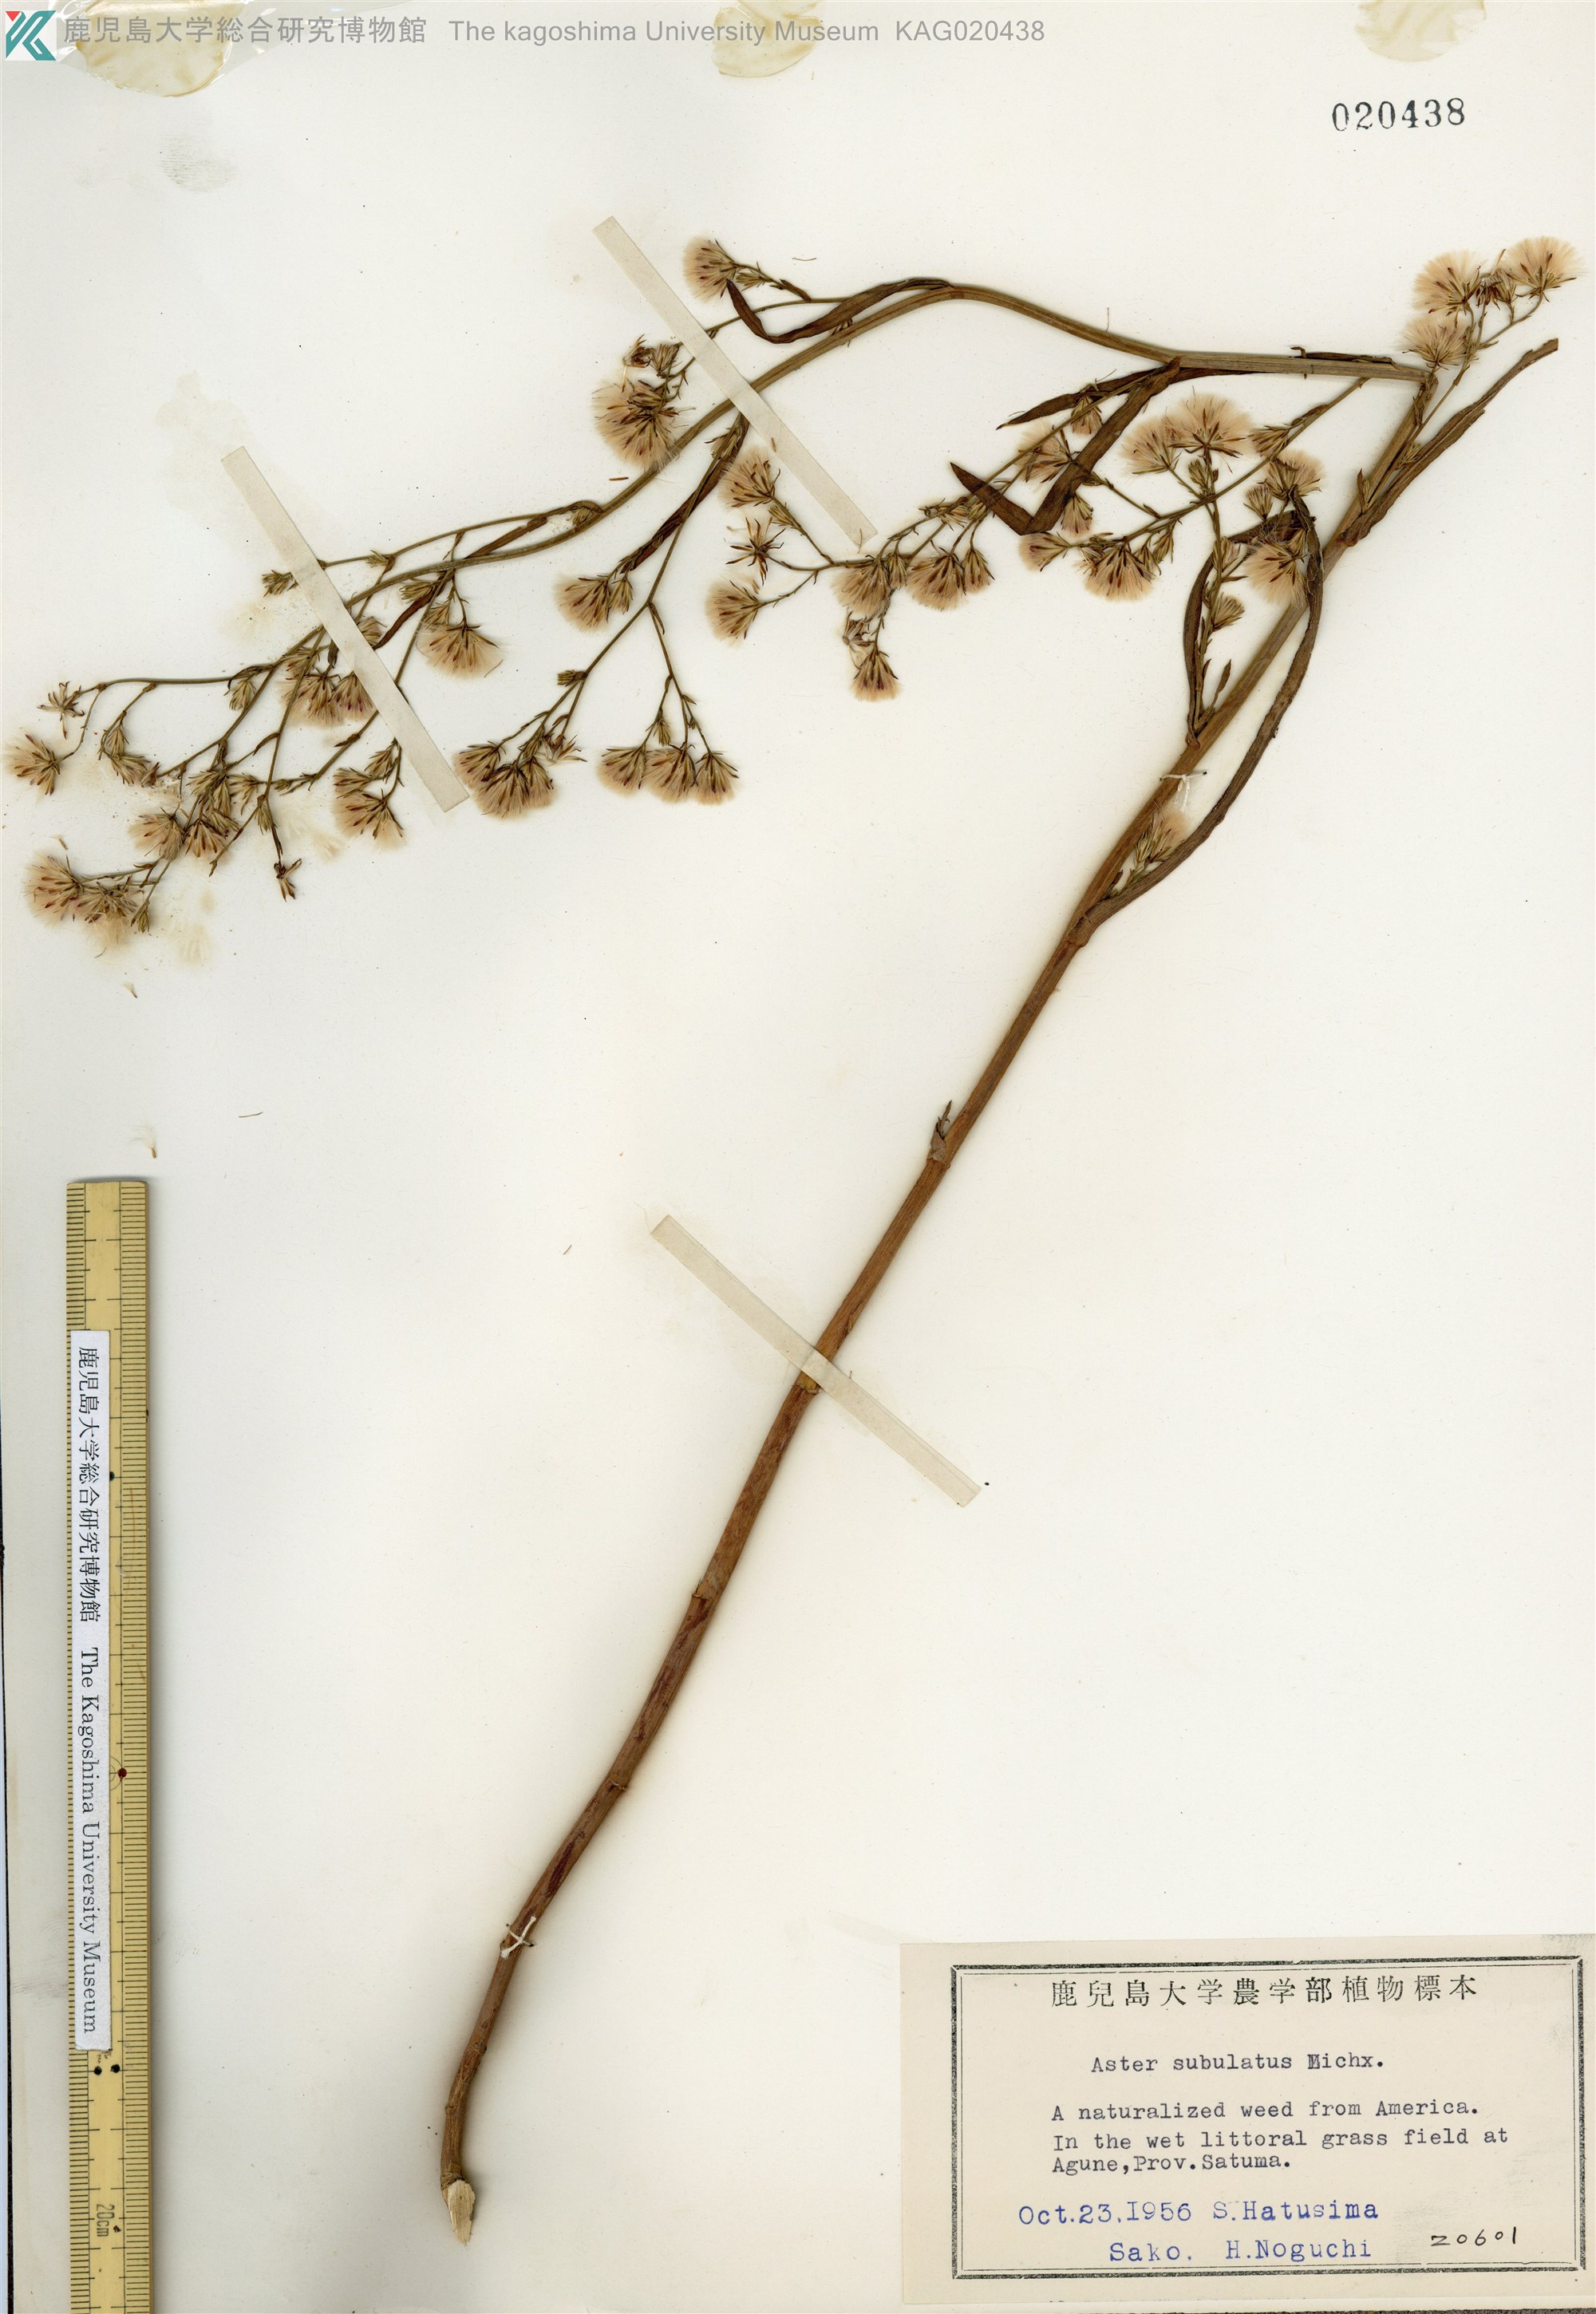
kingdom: Plantae
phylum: Tracheophyta
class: Magnoliopsida
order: Asterales
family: Asteraceae
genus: Symphyotrichum
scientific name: Symphyotrichum subulatum
